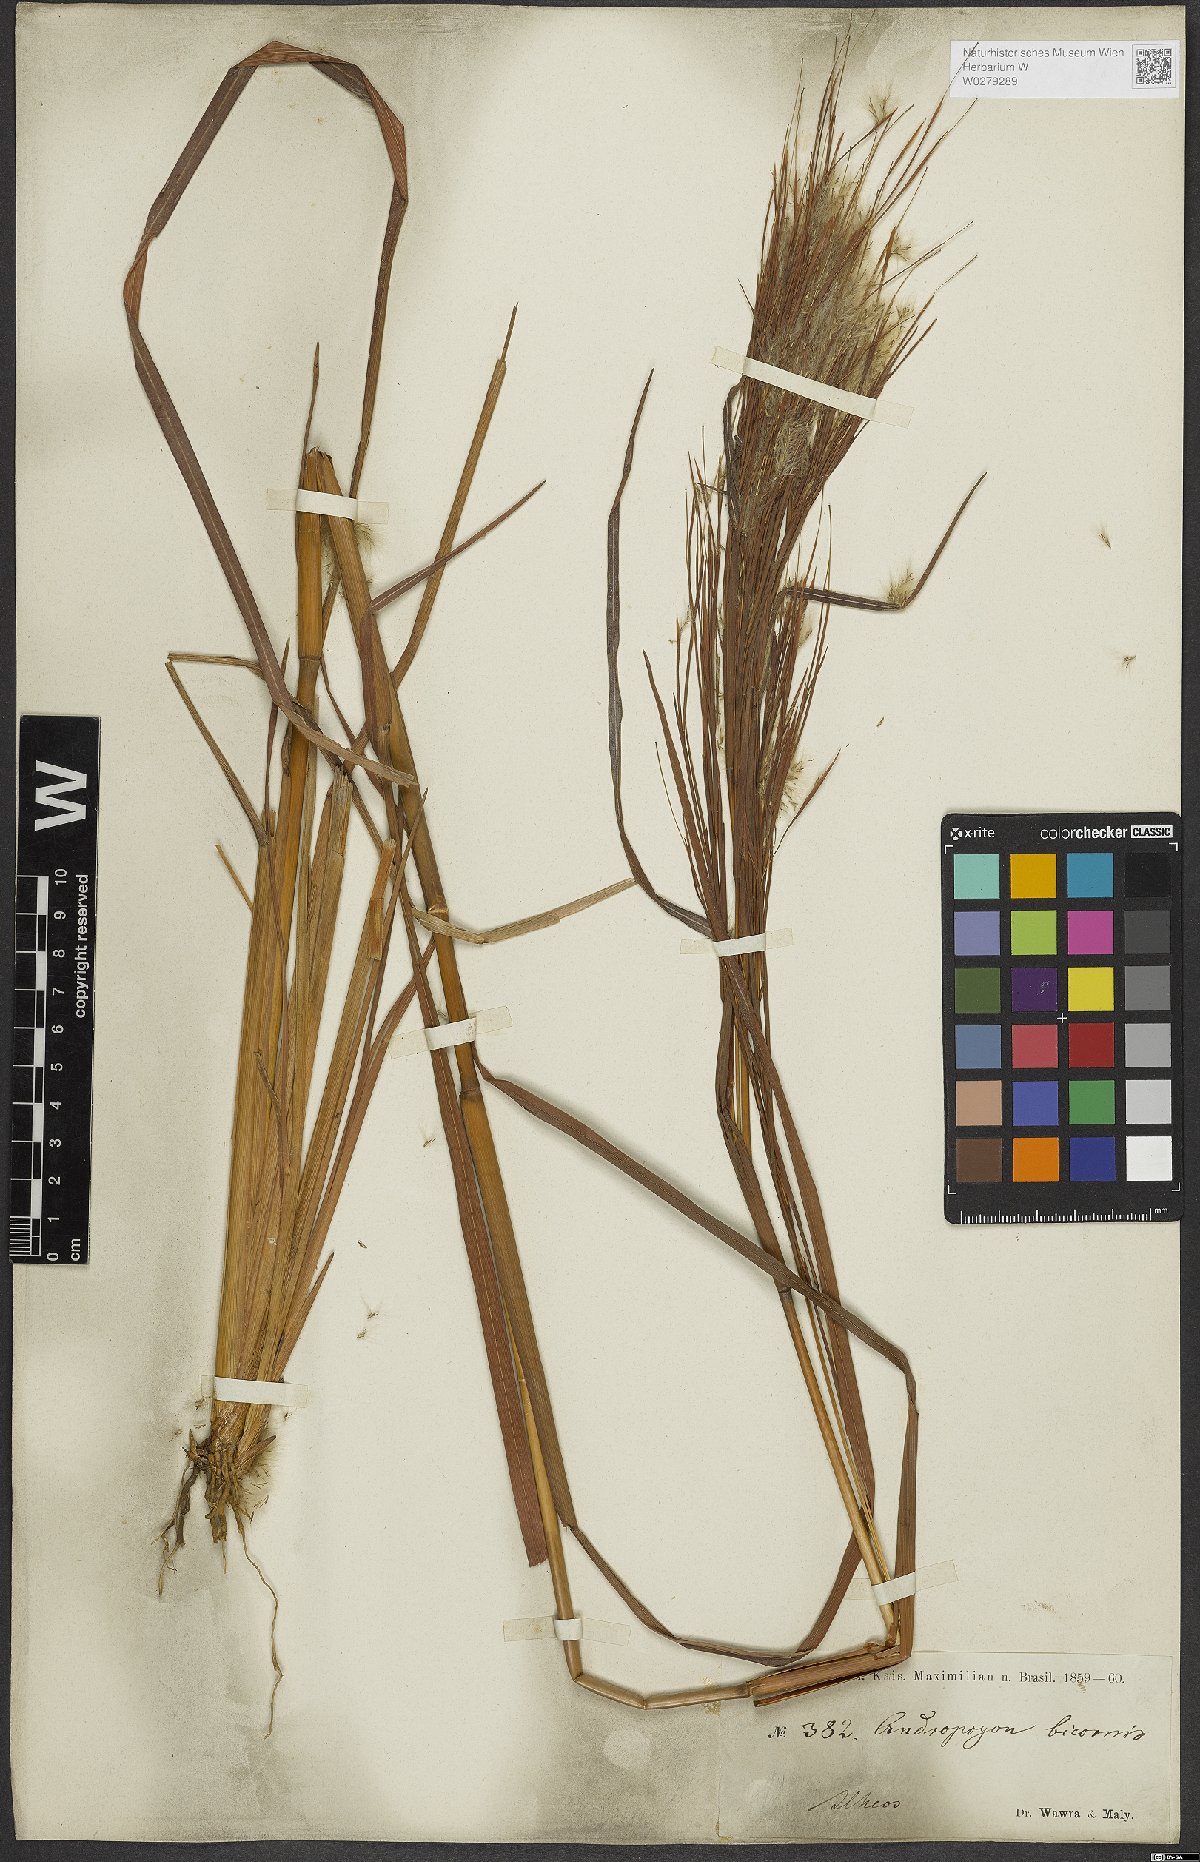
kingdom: Plantae
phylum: Tracheophyta
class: Liliopsida
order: Poales
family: Poaceae
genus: Andropogon
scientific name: Andropogon bicornis
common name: West indian foxtail grass
